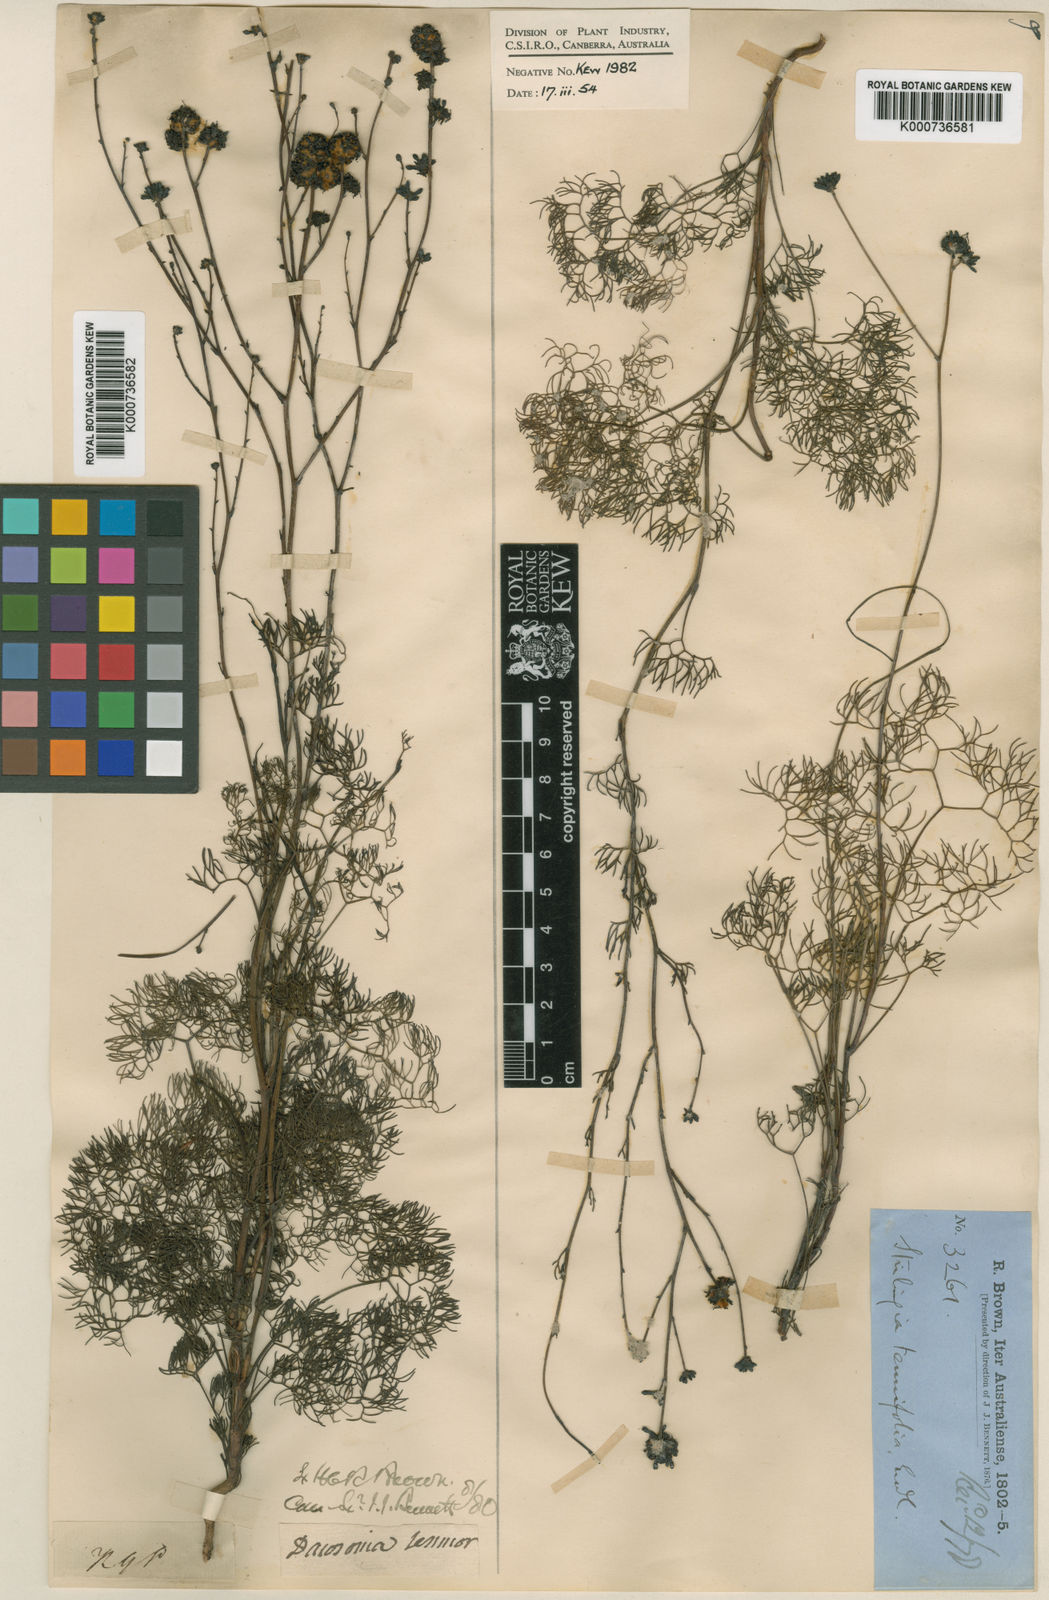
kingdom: Plantae
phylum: Tracheophyta
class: Magnoliopsida
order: Proteales
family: Proteaceae
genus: Stirlingia
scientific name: Stirlingia tenuifolia
